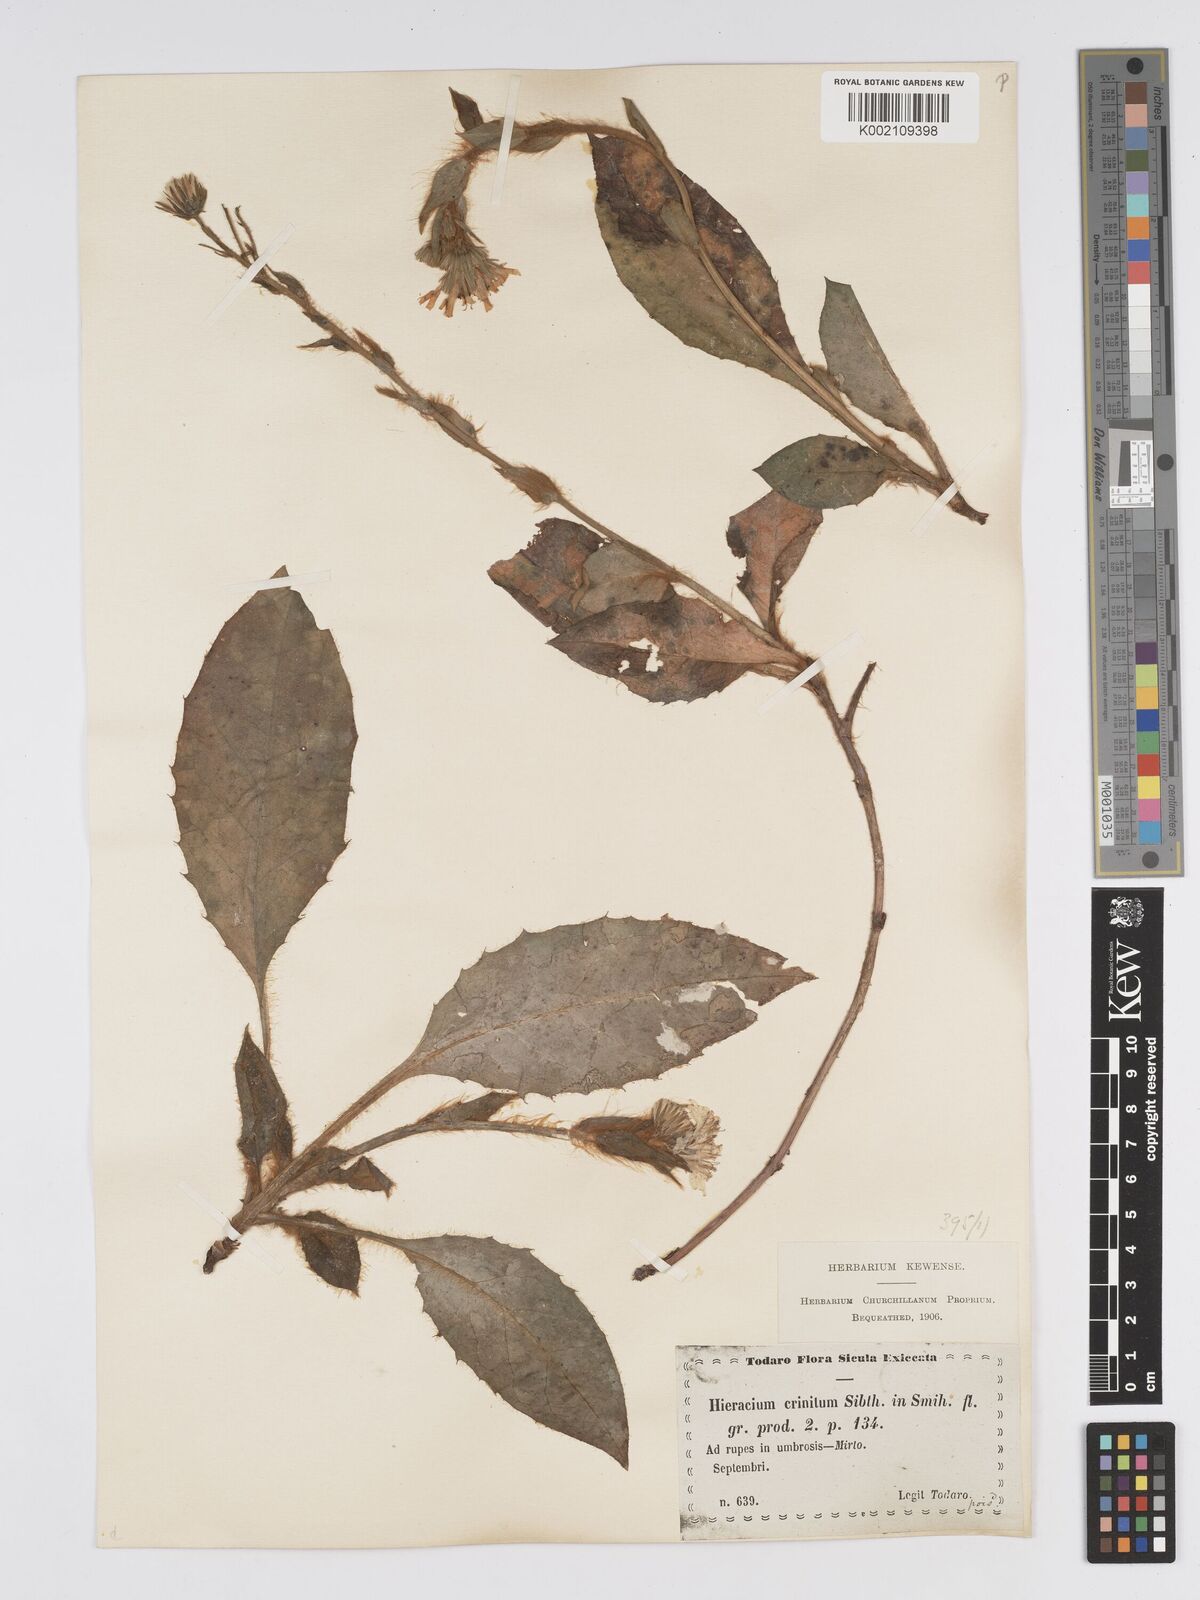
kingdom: Plantae
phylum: Tracheophyta
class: Magnoliopsida
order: Asterales
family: Asteraceae
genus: Hieracium
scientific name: Hieracium racemosum
